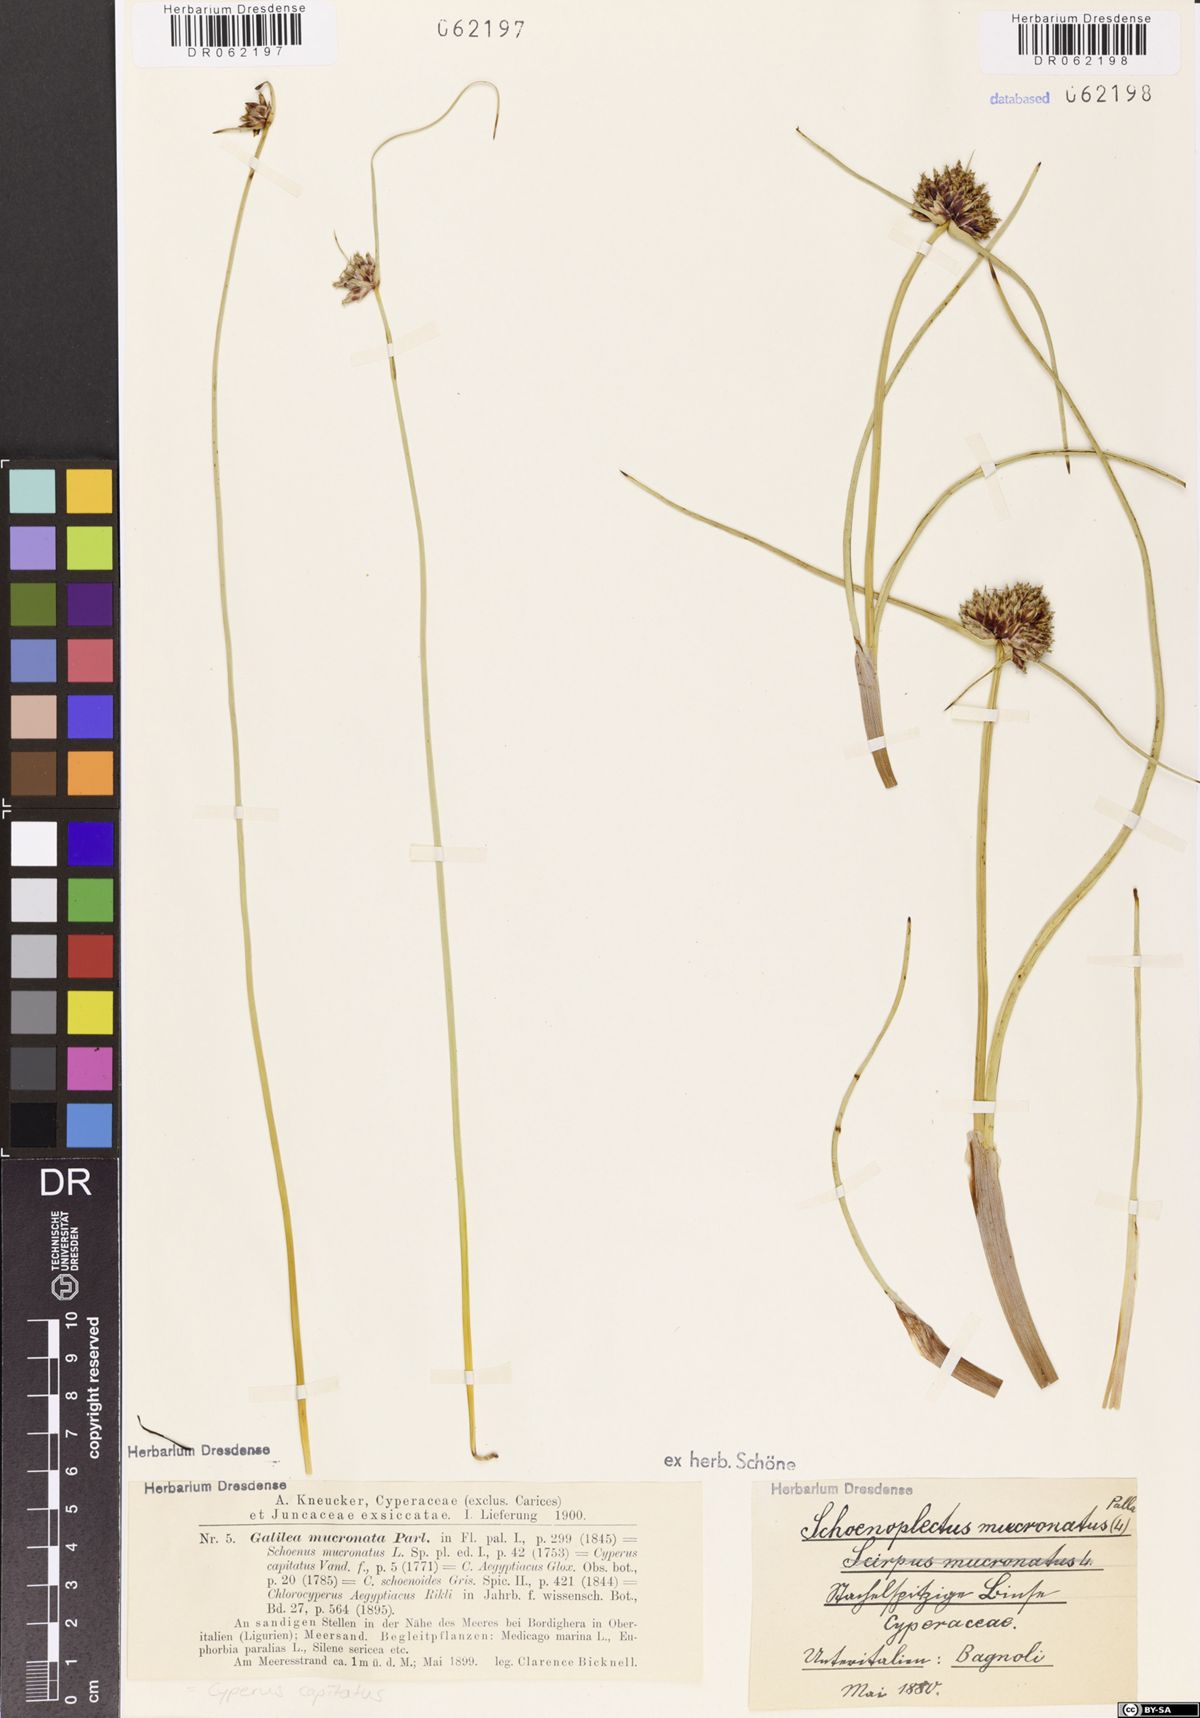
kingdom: Plantae
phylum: Tracheophyta
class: Liliopsida
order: Poales
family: Cyperaceae
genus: Cyperus
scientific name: Cyperus capitatus
